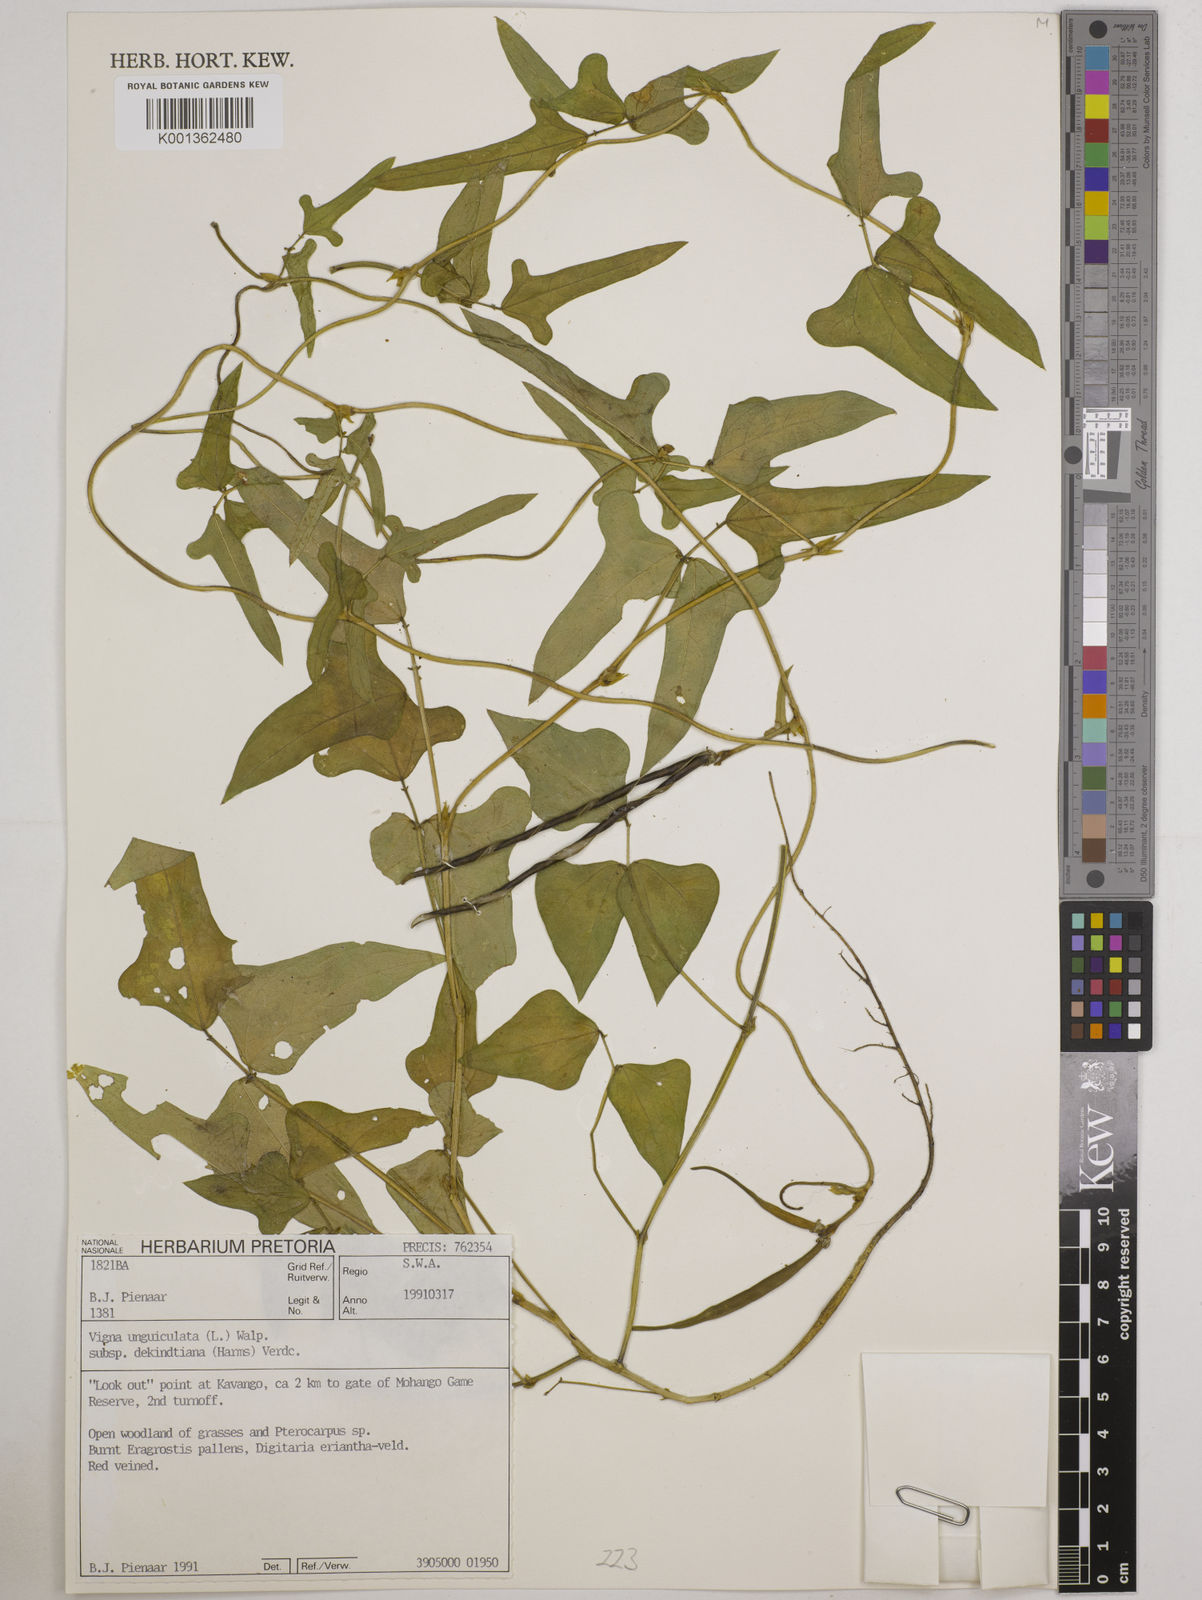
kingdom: Plantae
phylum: Tracheophyta
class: Magnoliopsida
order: Fabales
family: Fabaceae
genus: Vigna
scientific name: Vigna
